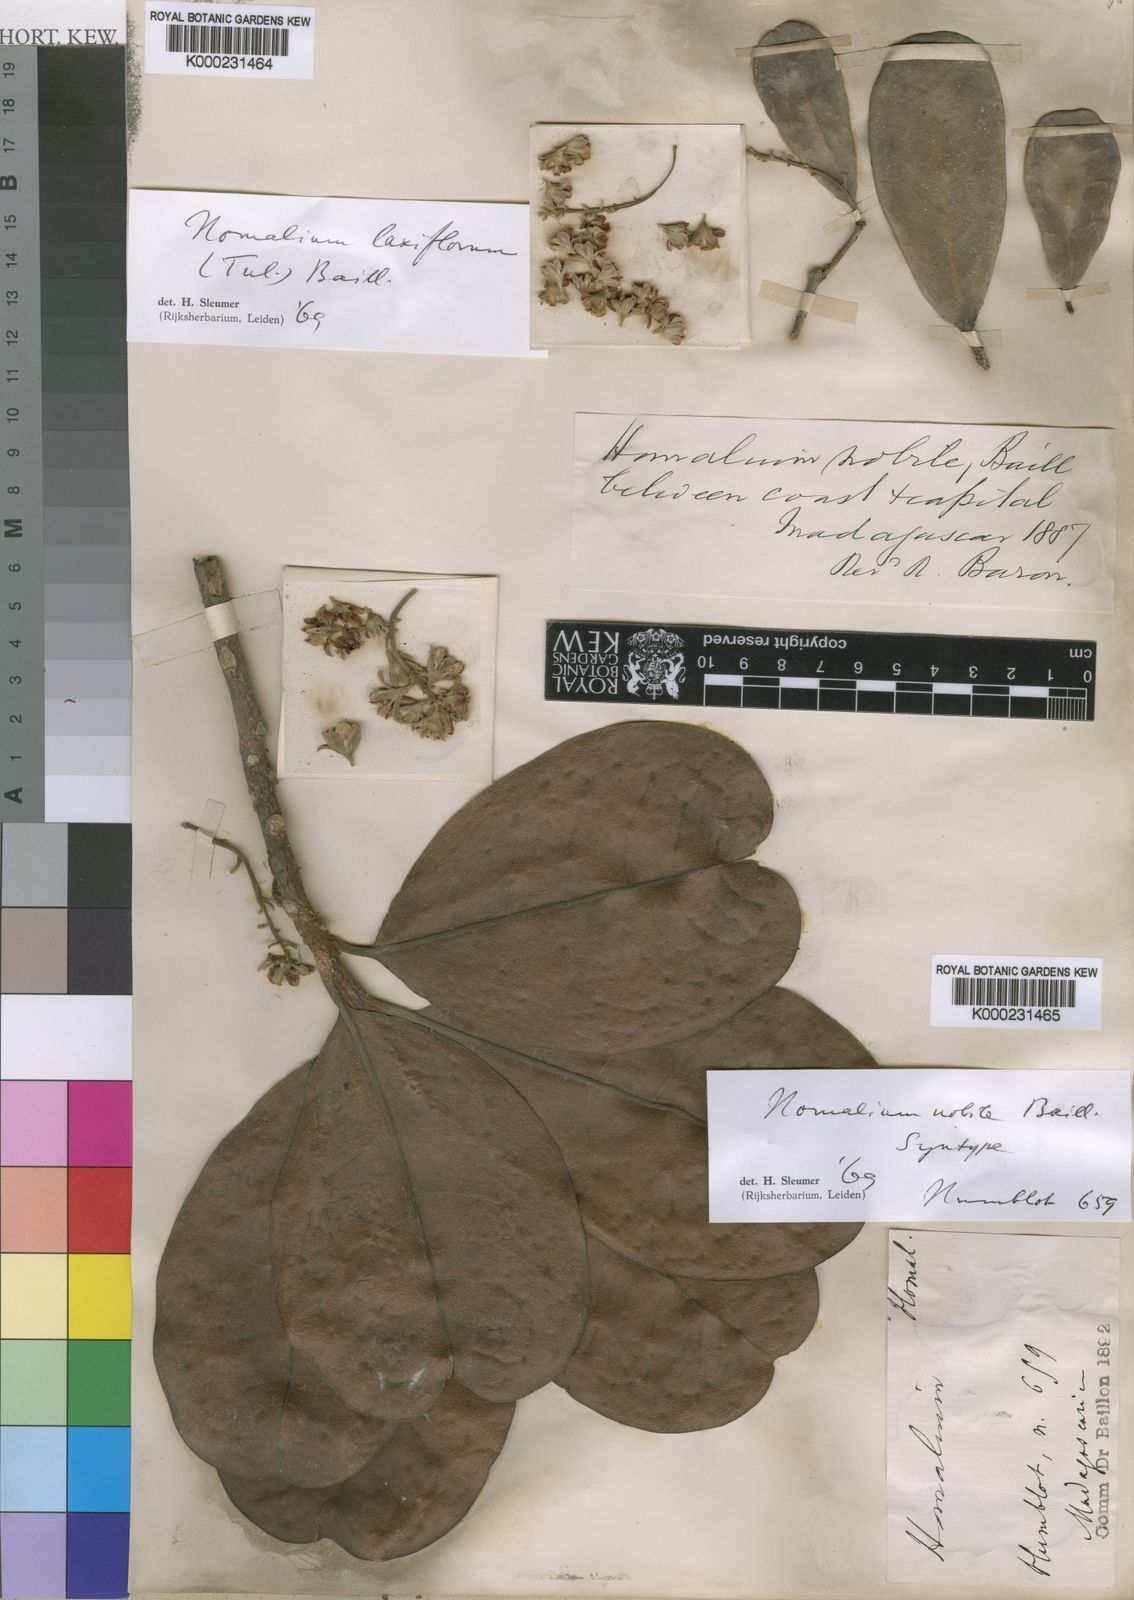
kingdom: Plantae
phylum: Tracheophyta
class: Magnoliopsida
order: Malpighiales
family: Salicaceae
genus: Homalium
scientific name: Homalium nobile
